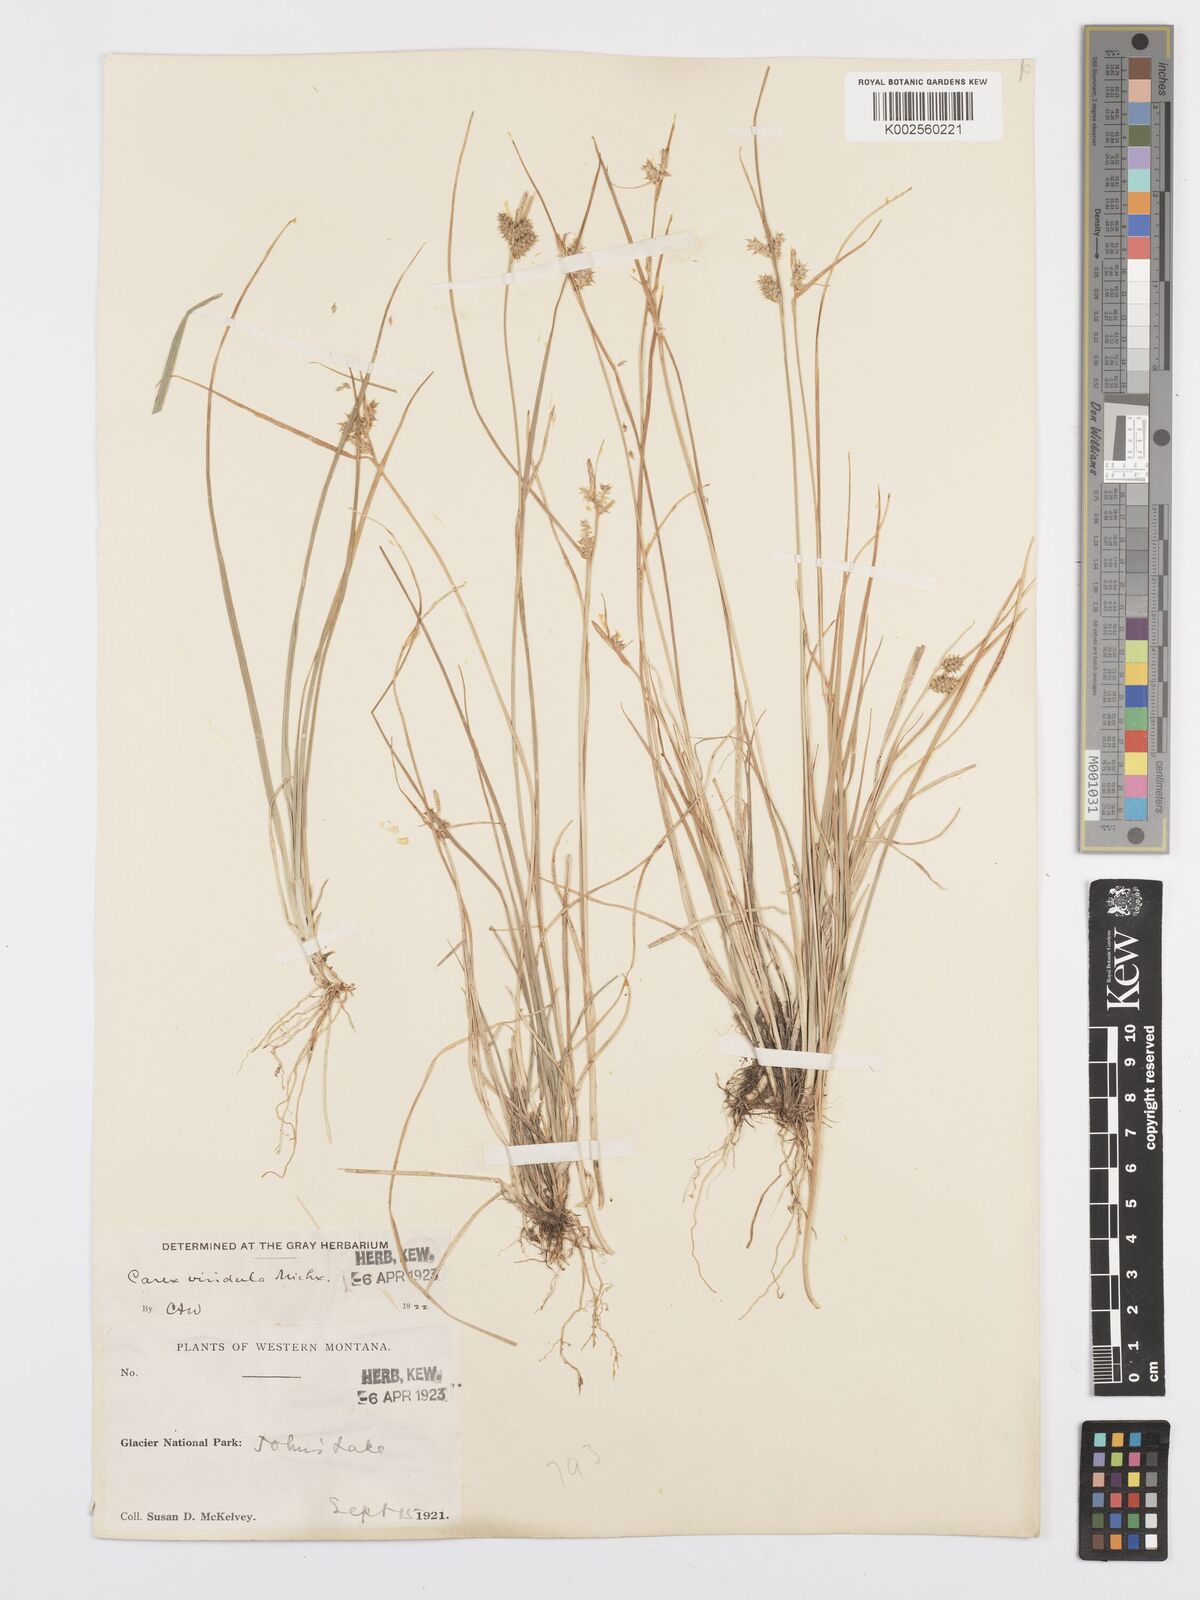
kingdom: Plantae
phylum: Tracheophyta
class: Liliopsida
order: Poales
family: Cyperaceae
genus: Carex
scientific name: Carex oederi
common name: Common & small-fruited yellow-sedge
